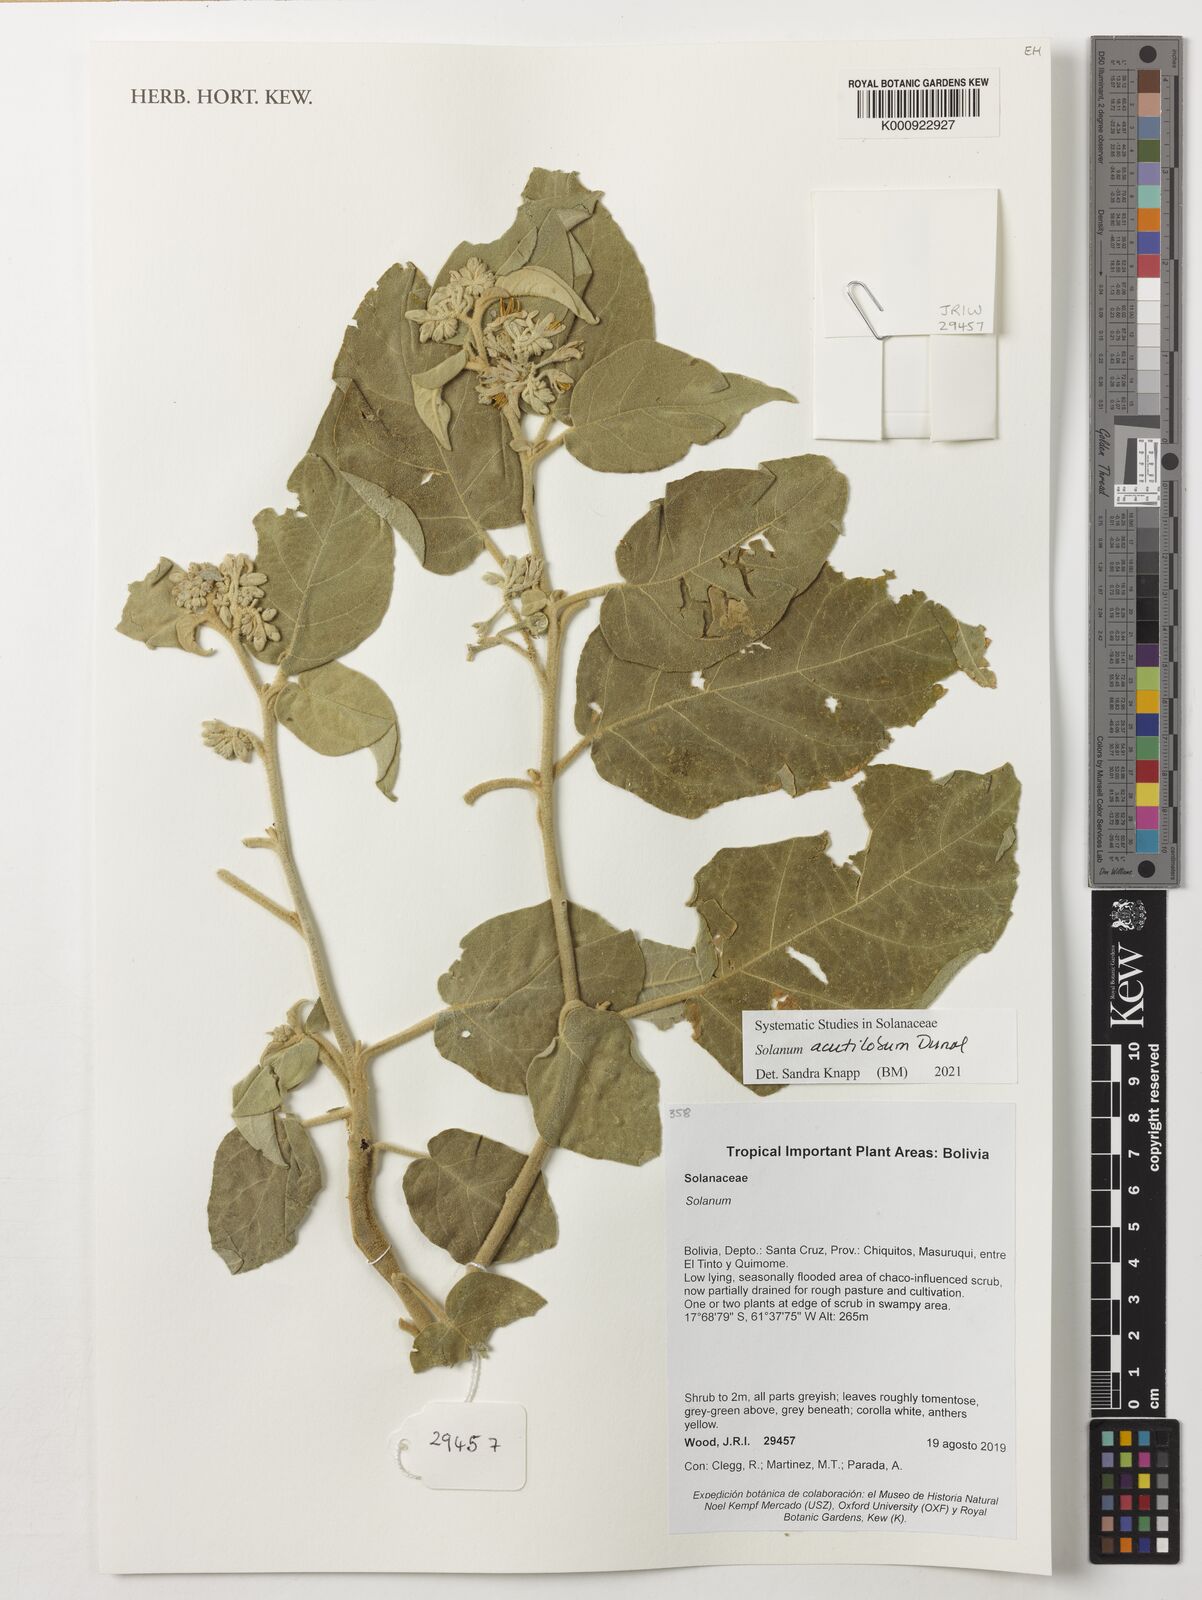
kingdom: Plantae
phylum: Tracheophyta
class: Magnoliopsida
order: Solanales
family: Solanaceae
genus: Solanum
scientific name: Solanum acutilobum
